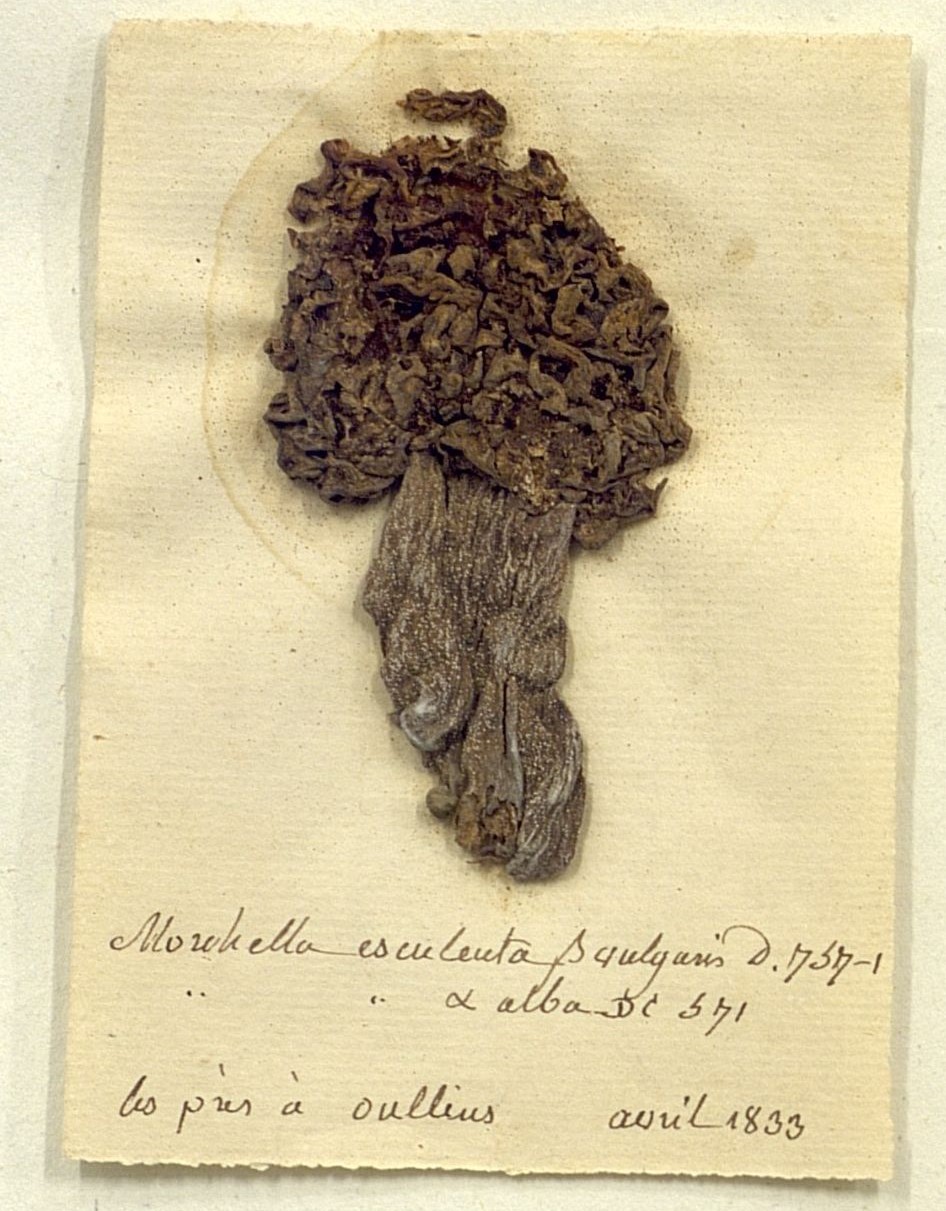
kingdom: Fungi
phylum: Ascomycota
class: Pezizomycetes
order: Pezizales
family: Morchellaceae
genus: Morchella
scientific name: Morchella esculenta
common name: Morel
